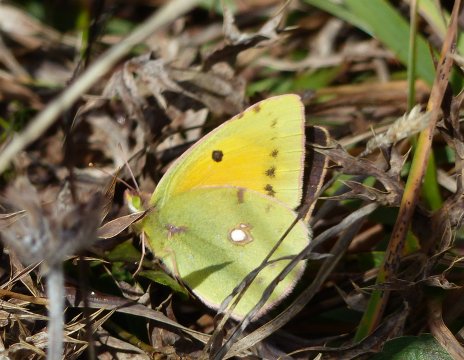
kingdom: Animalia
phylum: Arthropoda
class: Insecta
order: Lepidoptera
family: Pieridae
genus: Colias
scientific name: Colias croceus
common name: Clouded Yellow
